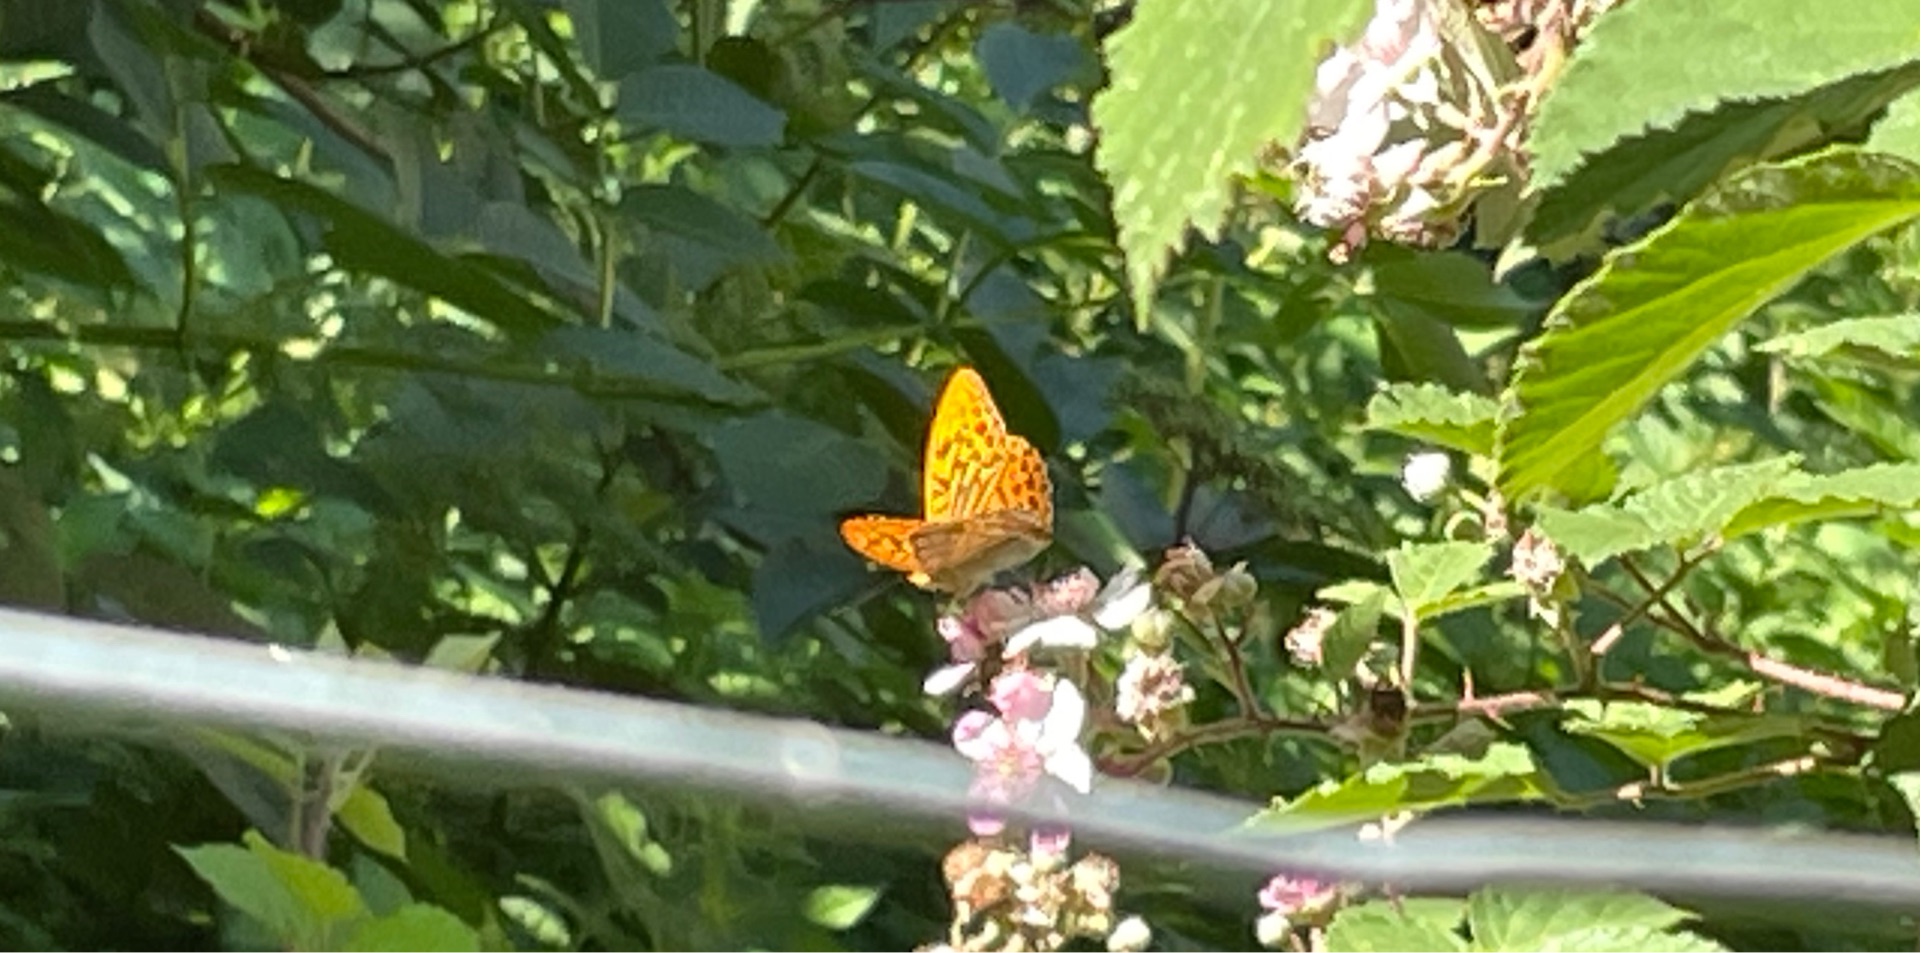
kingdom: Animalia
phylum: Arthropoda
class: Insecta
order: Lepidoptera
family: Nymphalidae
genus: Argynnis
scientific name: Argynnis paphia
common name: Kejserkåbe
